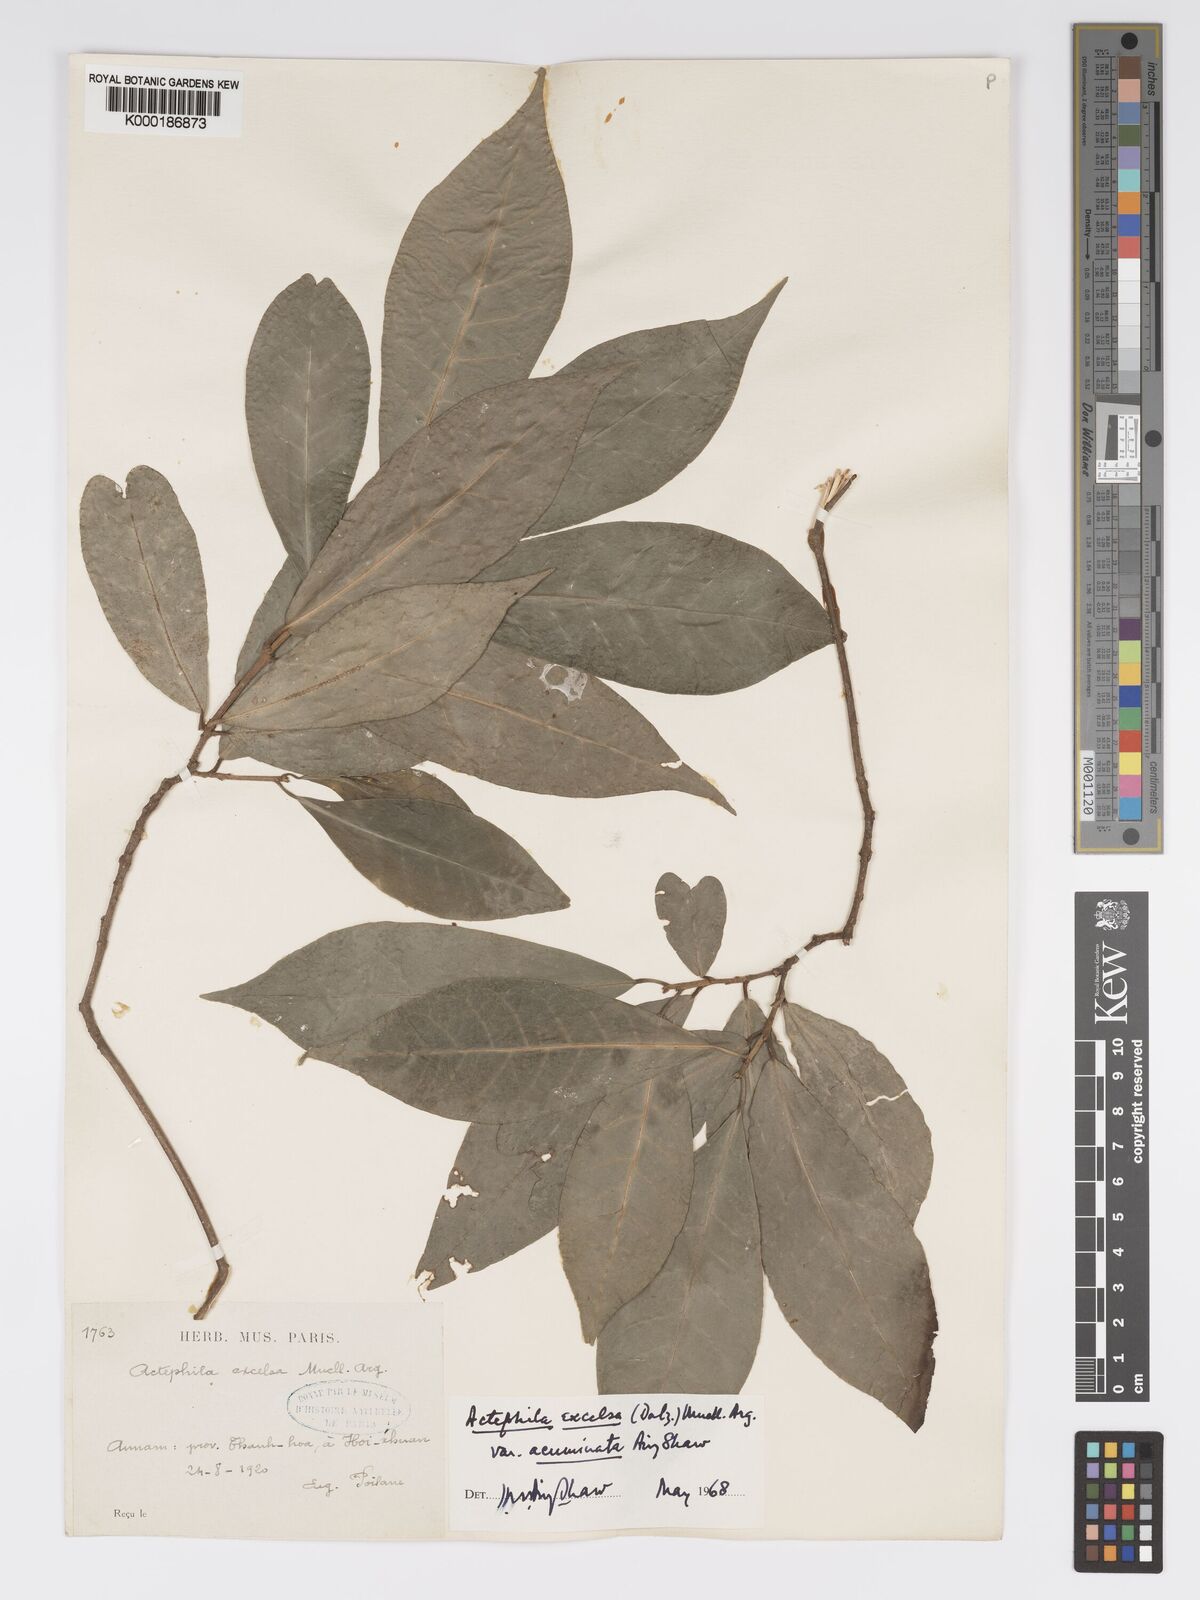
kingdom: Plantae
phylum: Tracheophyta
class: Magnoliopsida
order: Malpighiales
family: Phyllanthaceae
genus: Actephila
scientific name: Actephila subsessilis
